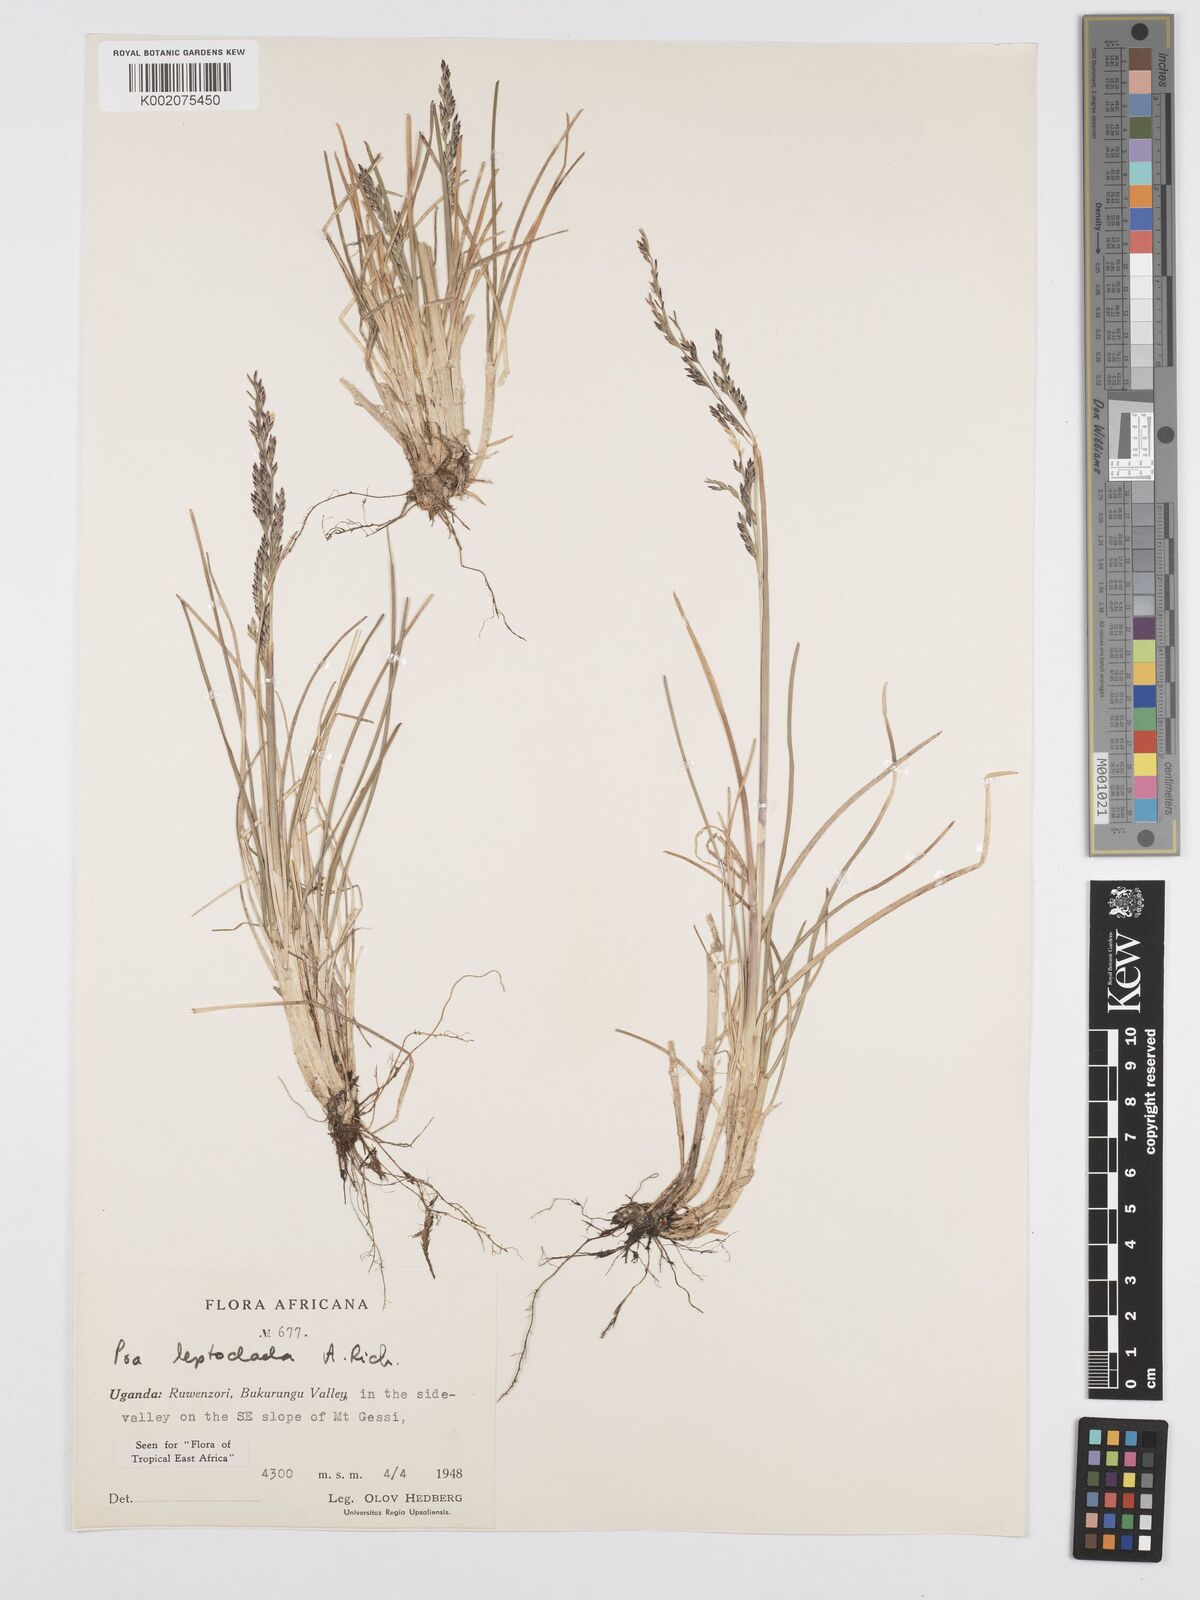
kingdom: Plantae
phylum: Tracheophyta
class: Liliopsida
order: Poales
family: Poaceae
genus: Poa
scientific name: Poa
